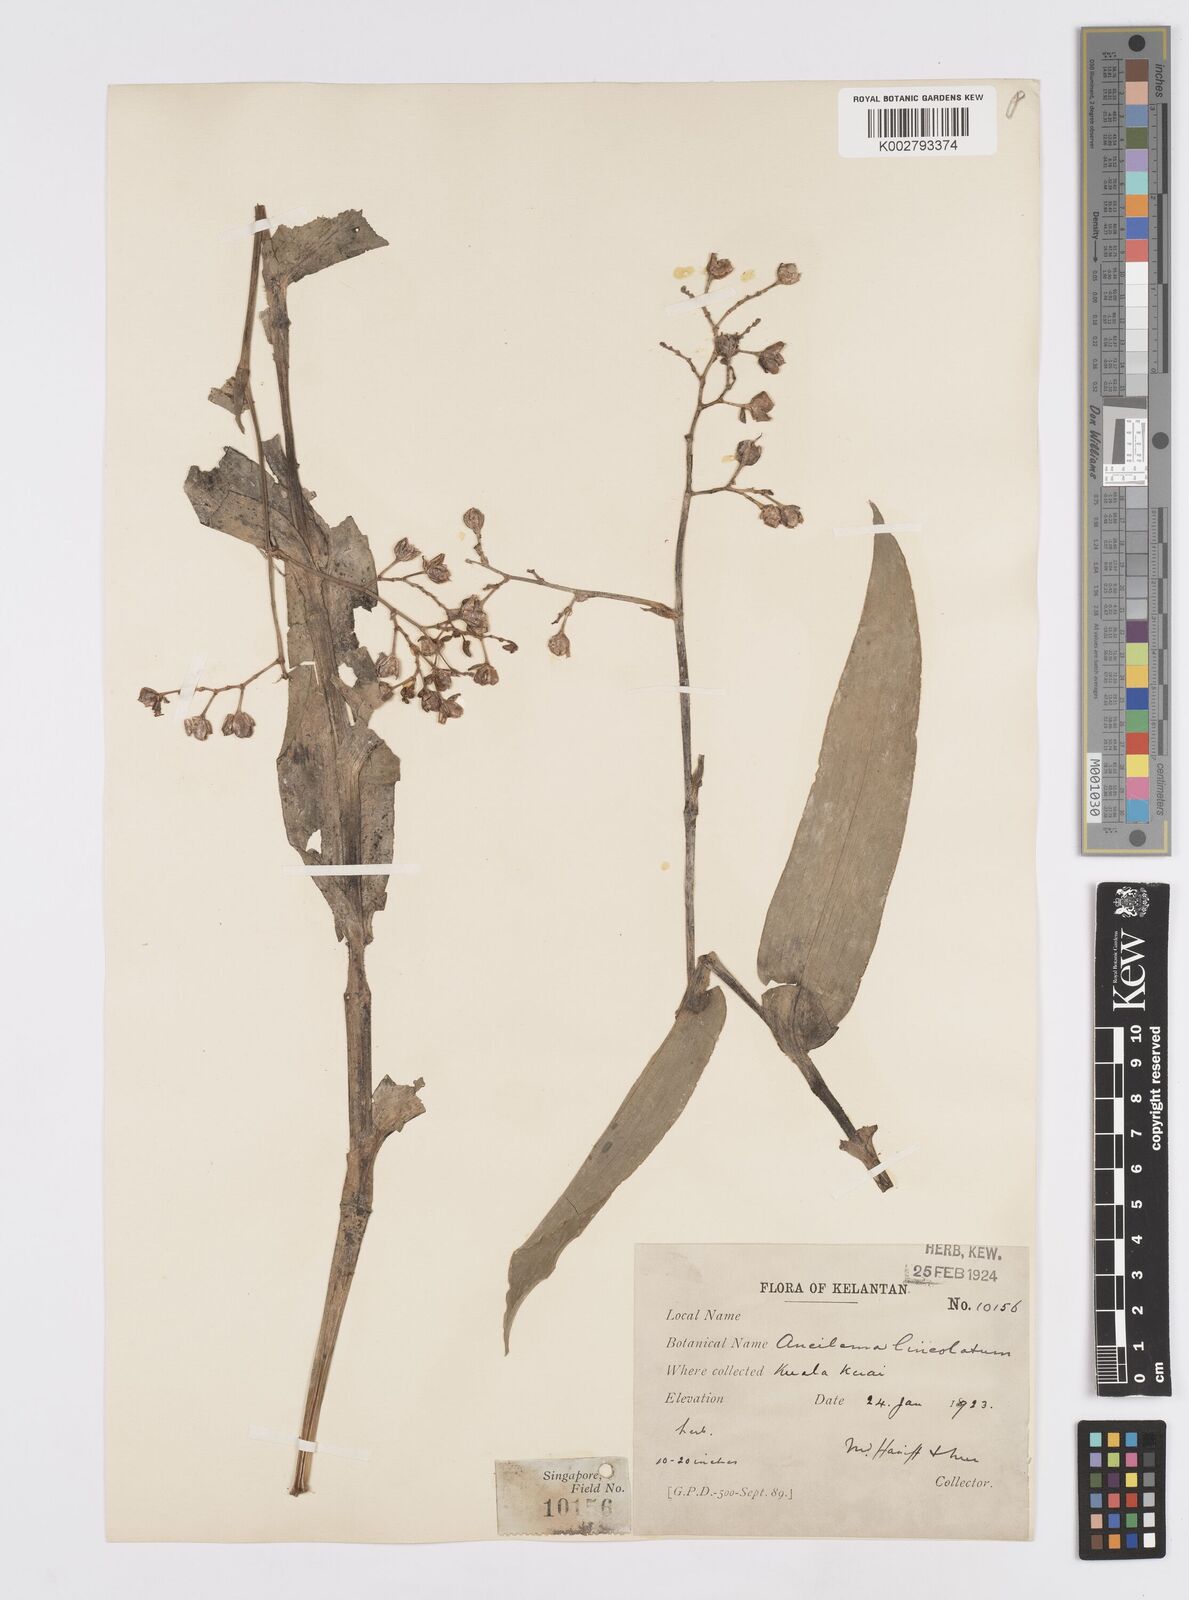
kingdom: Plantae
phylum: Tracheophyta
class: Liliopsida
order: Commelinales
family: Commelinaceae
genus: Murdannia
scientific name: Murdannia japonica
